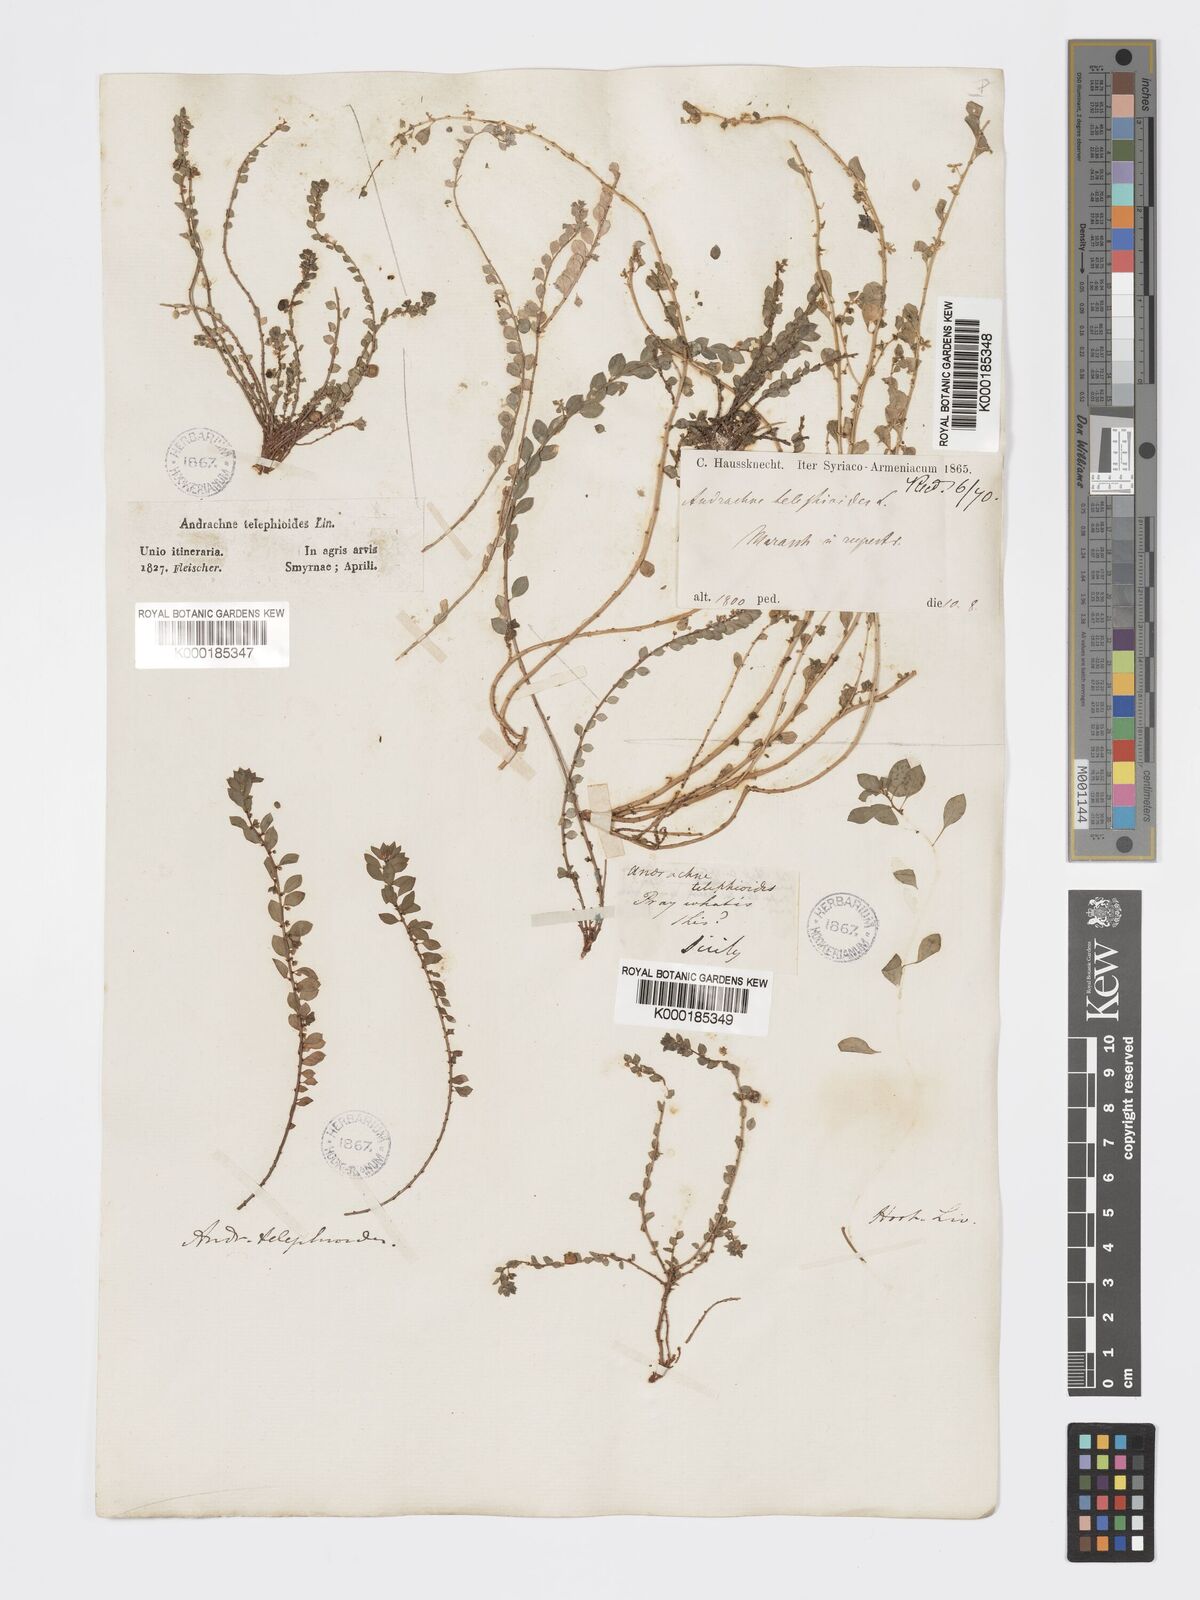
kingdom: Plantae
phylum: Tracheophyta
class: Magnoliopsida
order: Malpighiales
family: Phyllanthaceae
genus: Andrachne
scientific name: Andrachne telephioides
